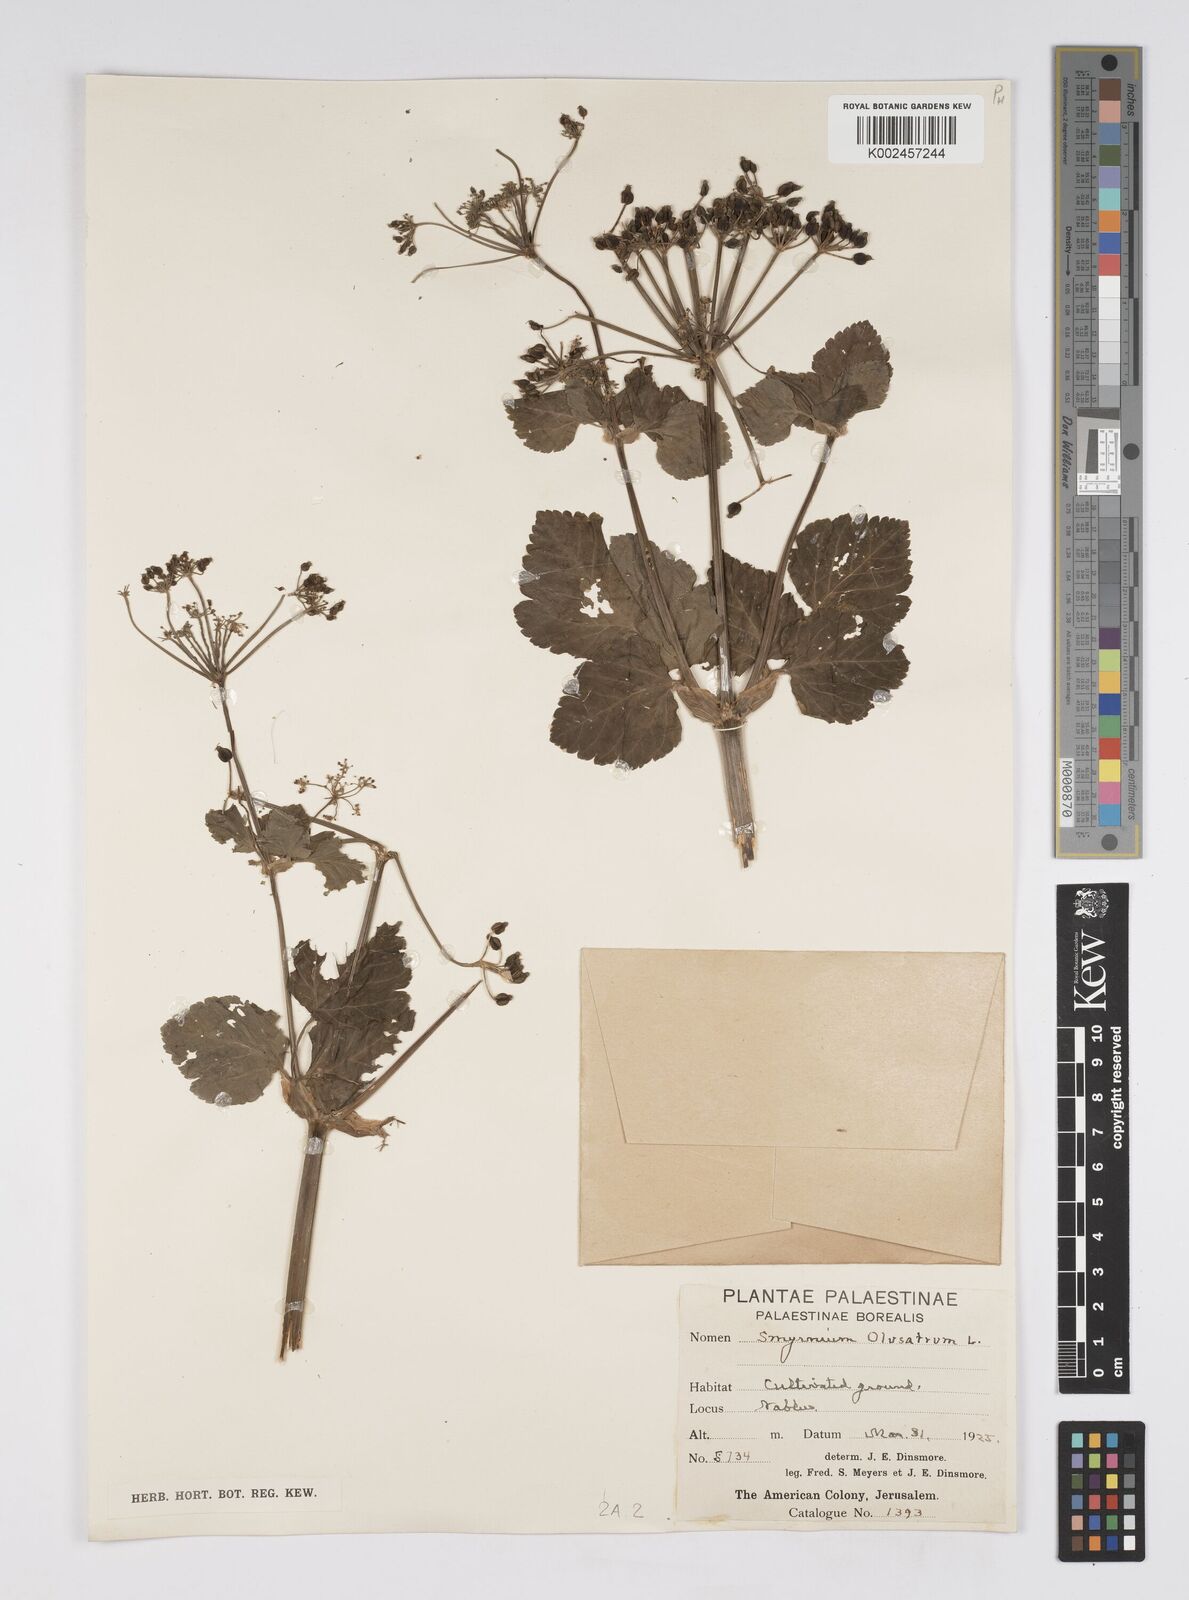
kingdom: Plantae
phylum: Tracheophyta
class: Magnoliopsida
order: Apiales
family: Apiaceae
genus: Smyrnium
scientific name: Smyrnium olusatrum
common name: Alexanders
